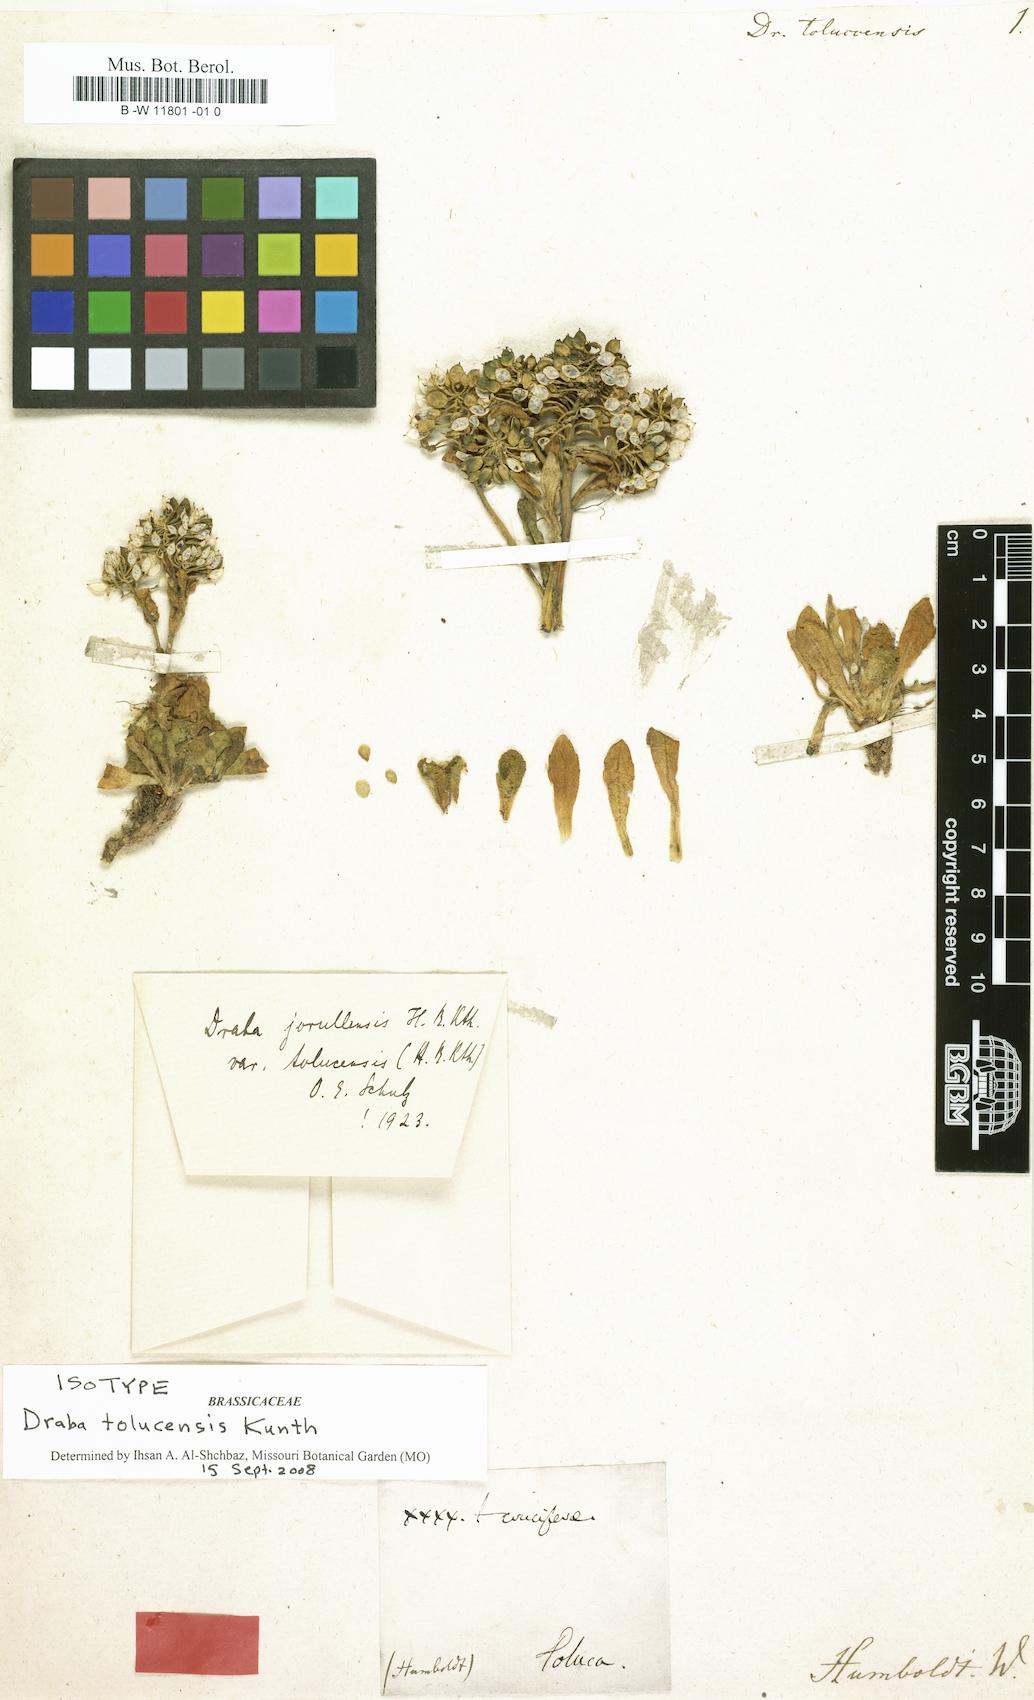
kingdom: Plantae
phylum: Tracheophyta
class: Magnoliopsida
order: Brassicales
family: Brassicaceae
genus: Draba
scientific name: Draba jorullensis
